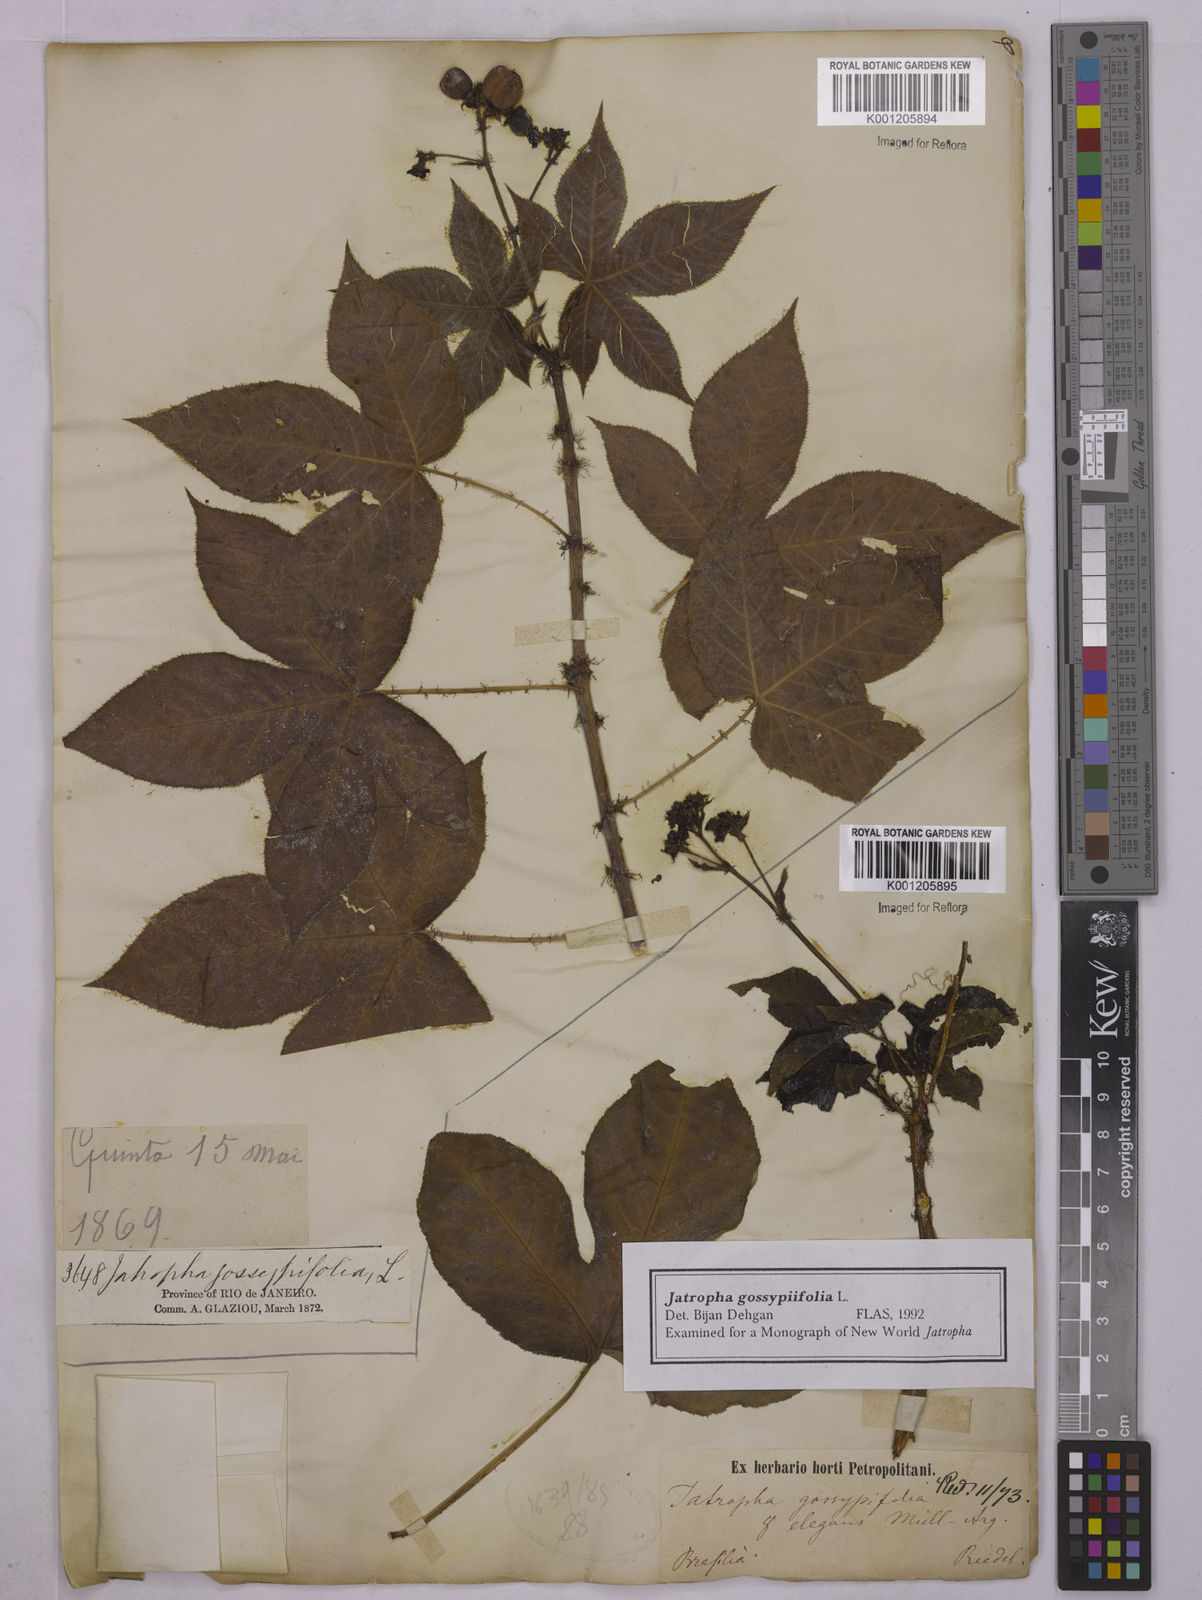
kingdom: Plantae
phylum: Tracheophyta
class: Magnoliopsida
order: Malpighiales
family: Euphorbiaceae
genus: Jatropha
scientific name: Jatropha gossypiifolia
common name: Bellyache bush
